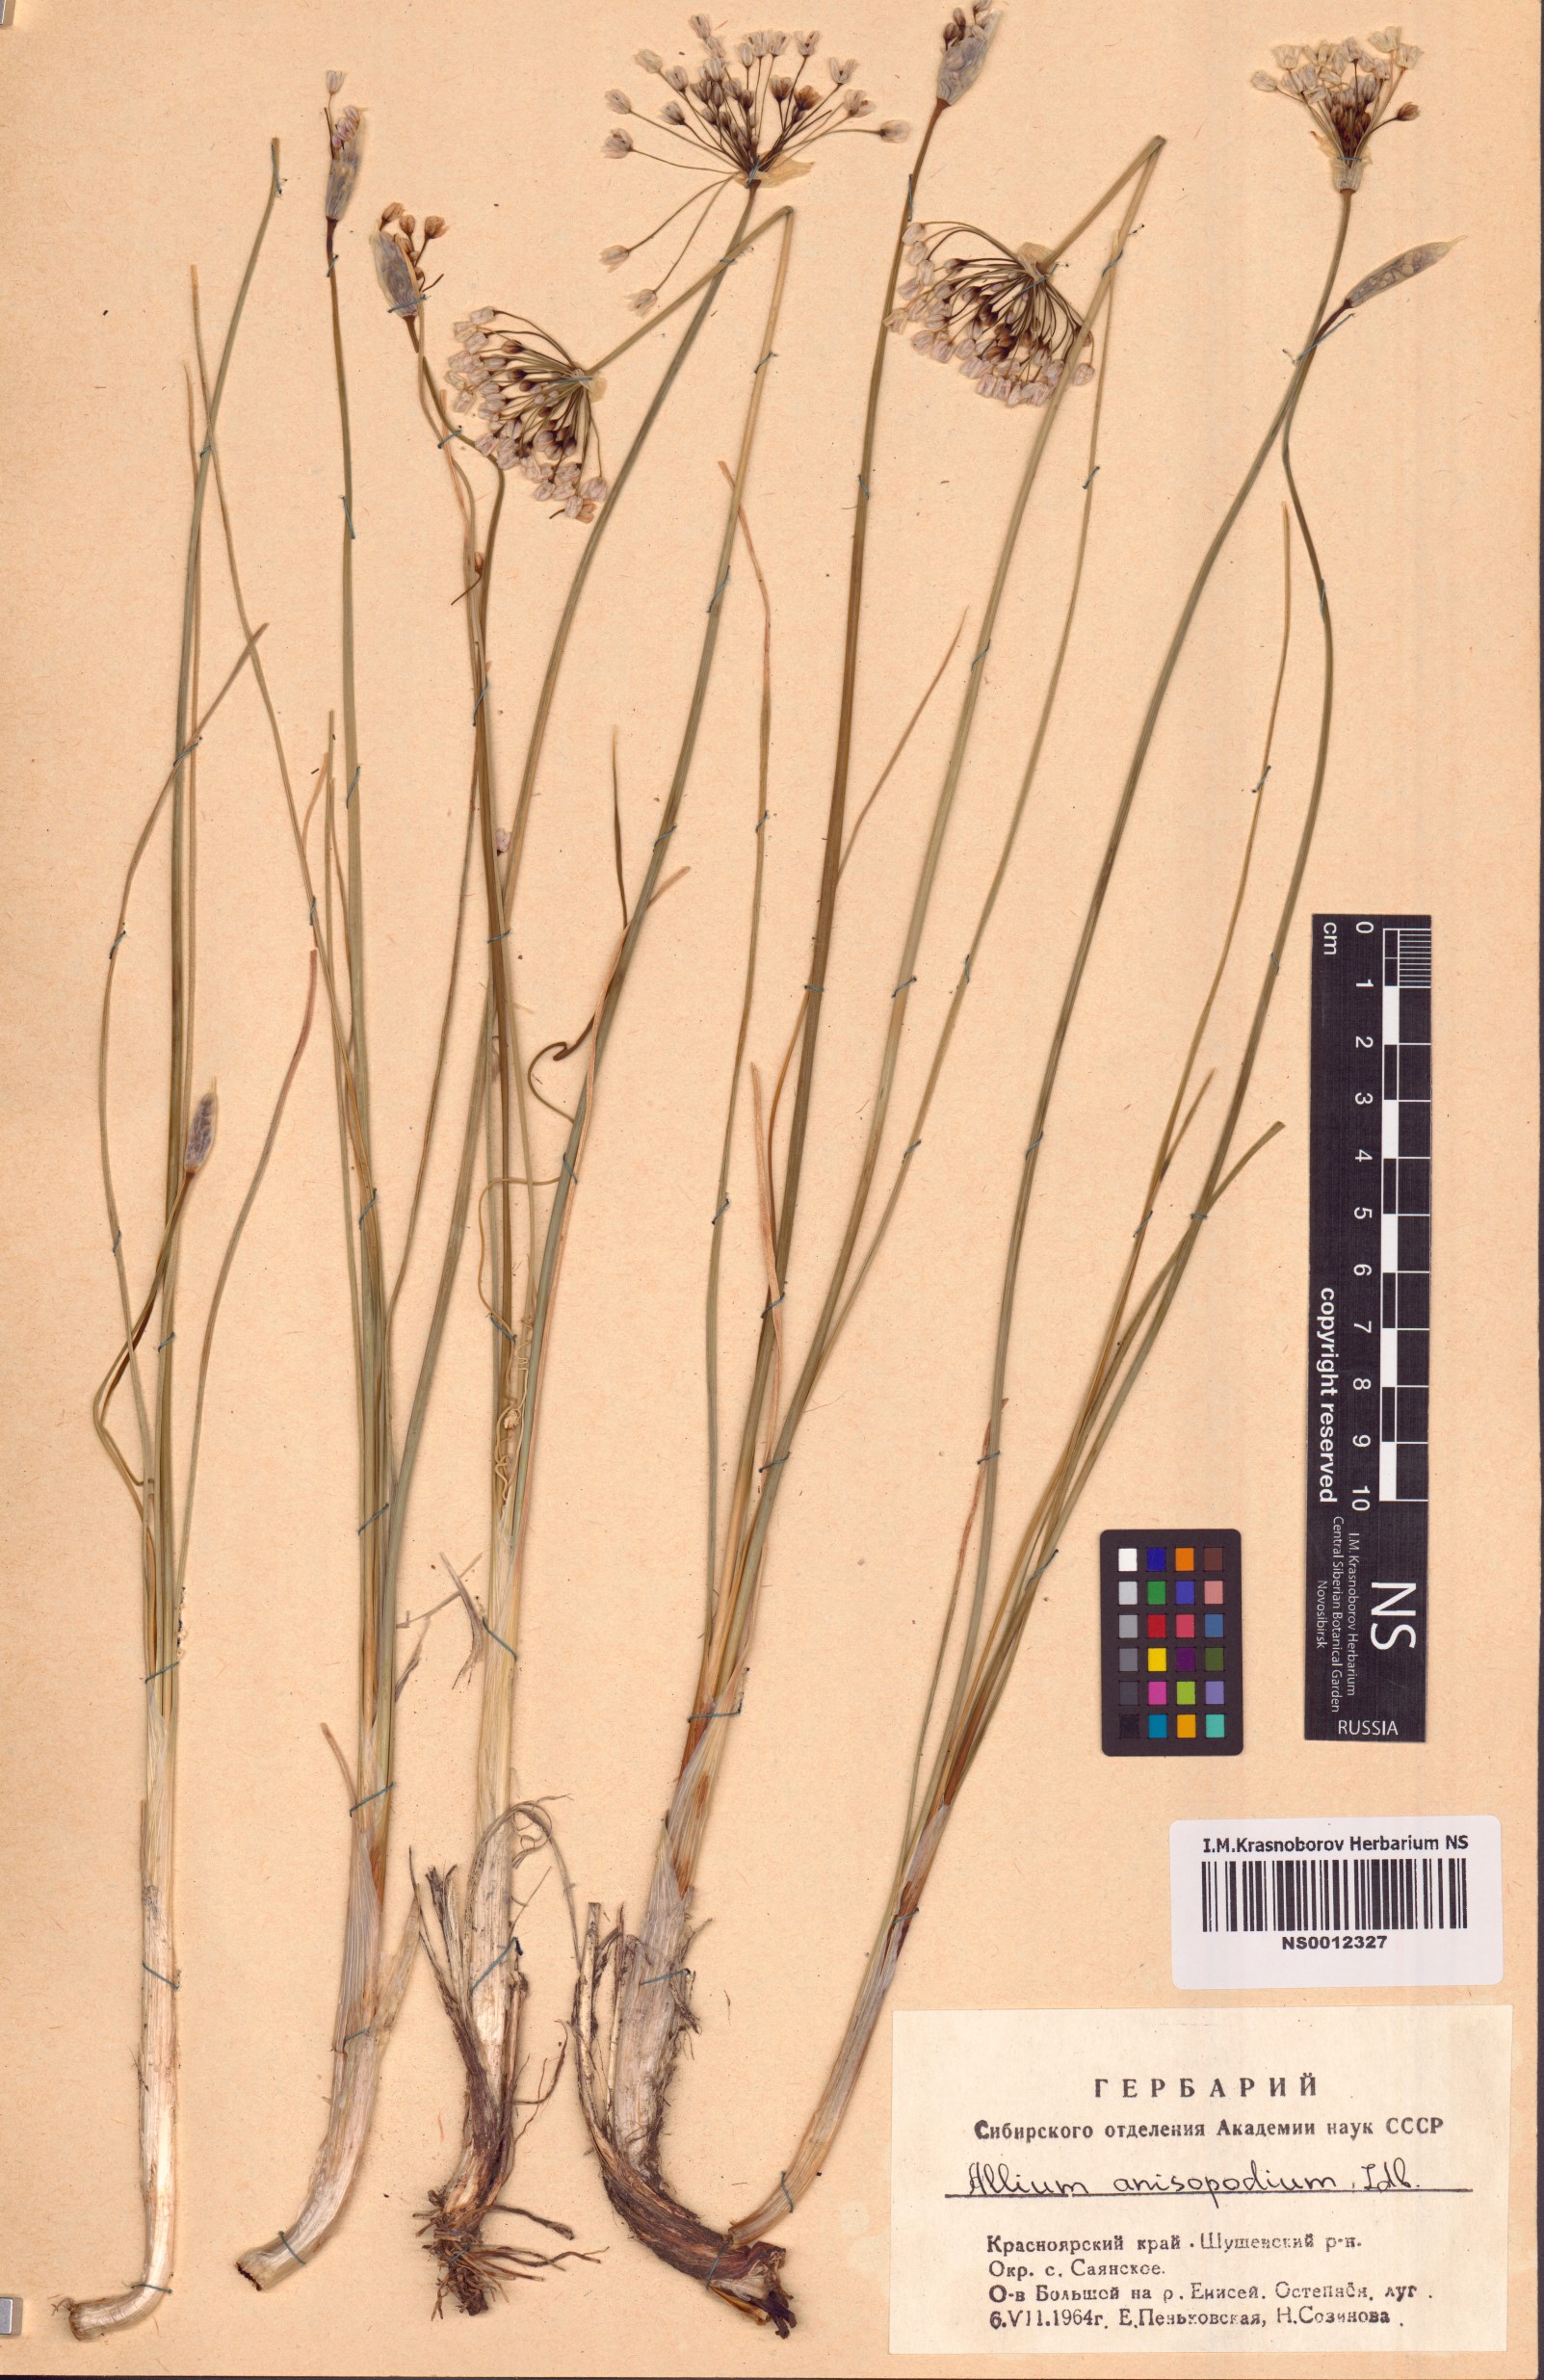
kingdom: Plantae
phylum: Tracheophyta
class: Liliopsida
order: Asparagales
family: Amaryllidaceae
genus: Allium
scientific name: Allium anisopodium
